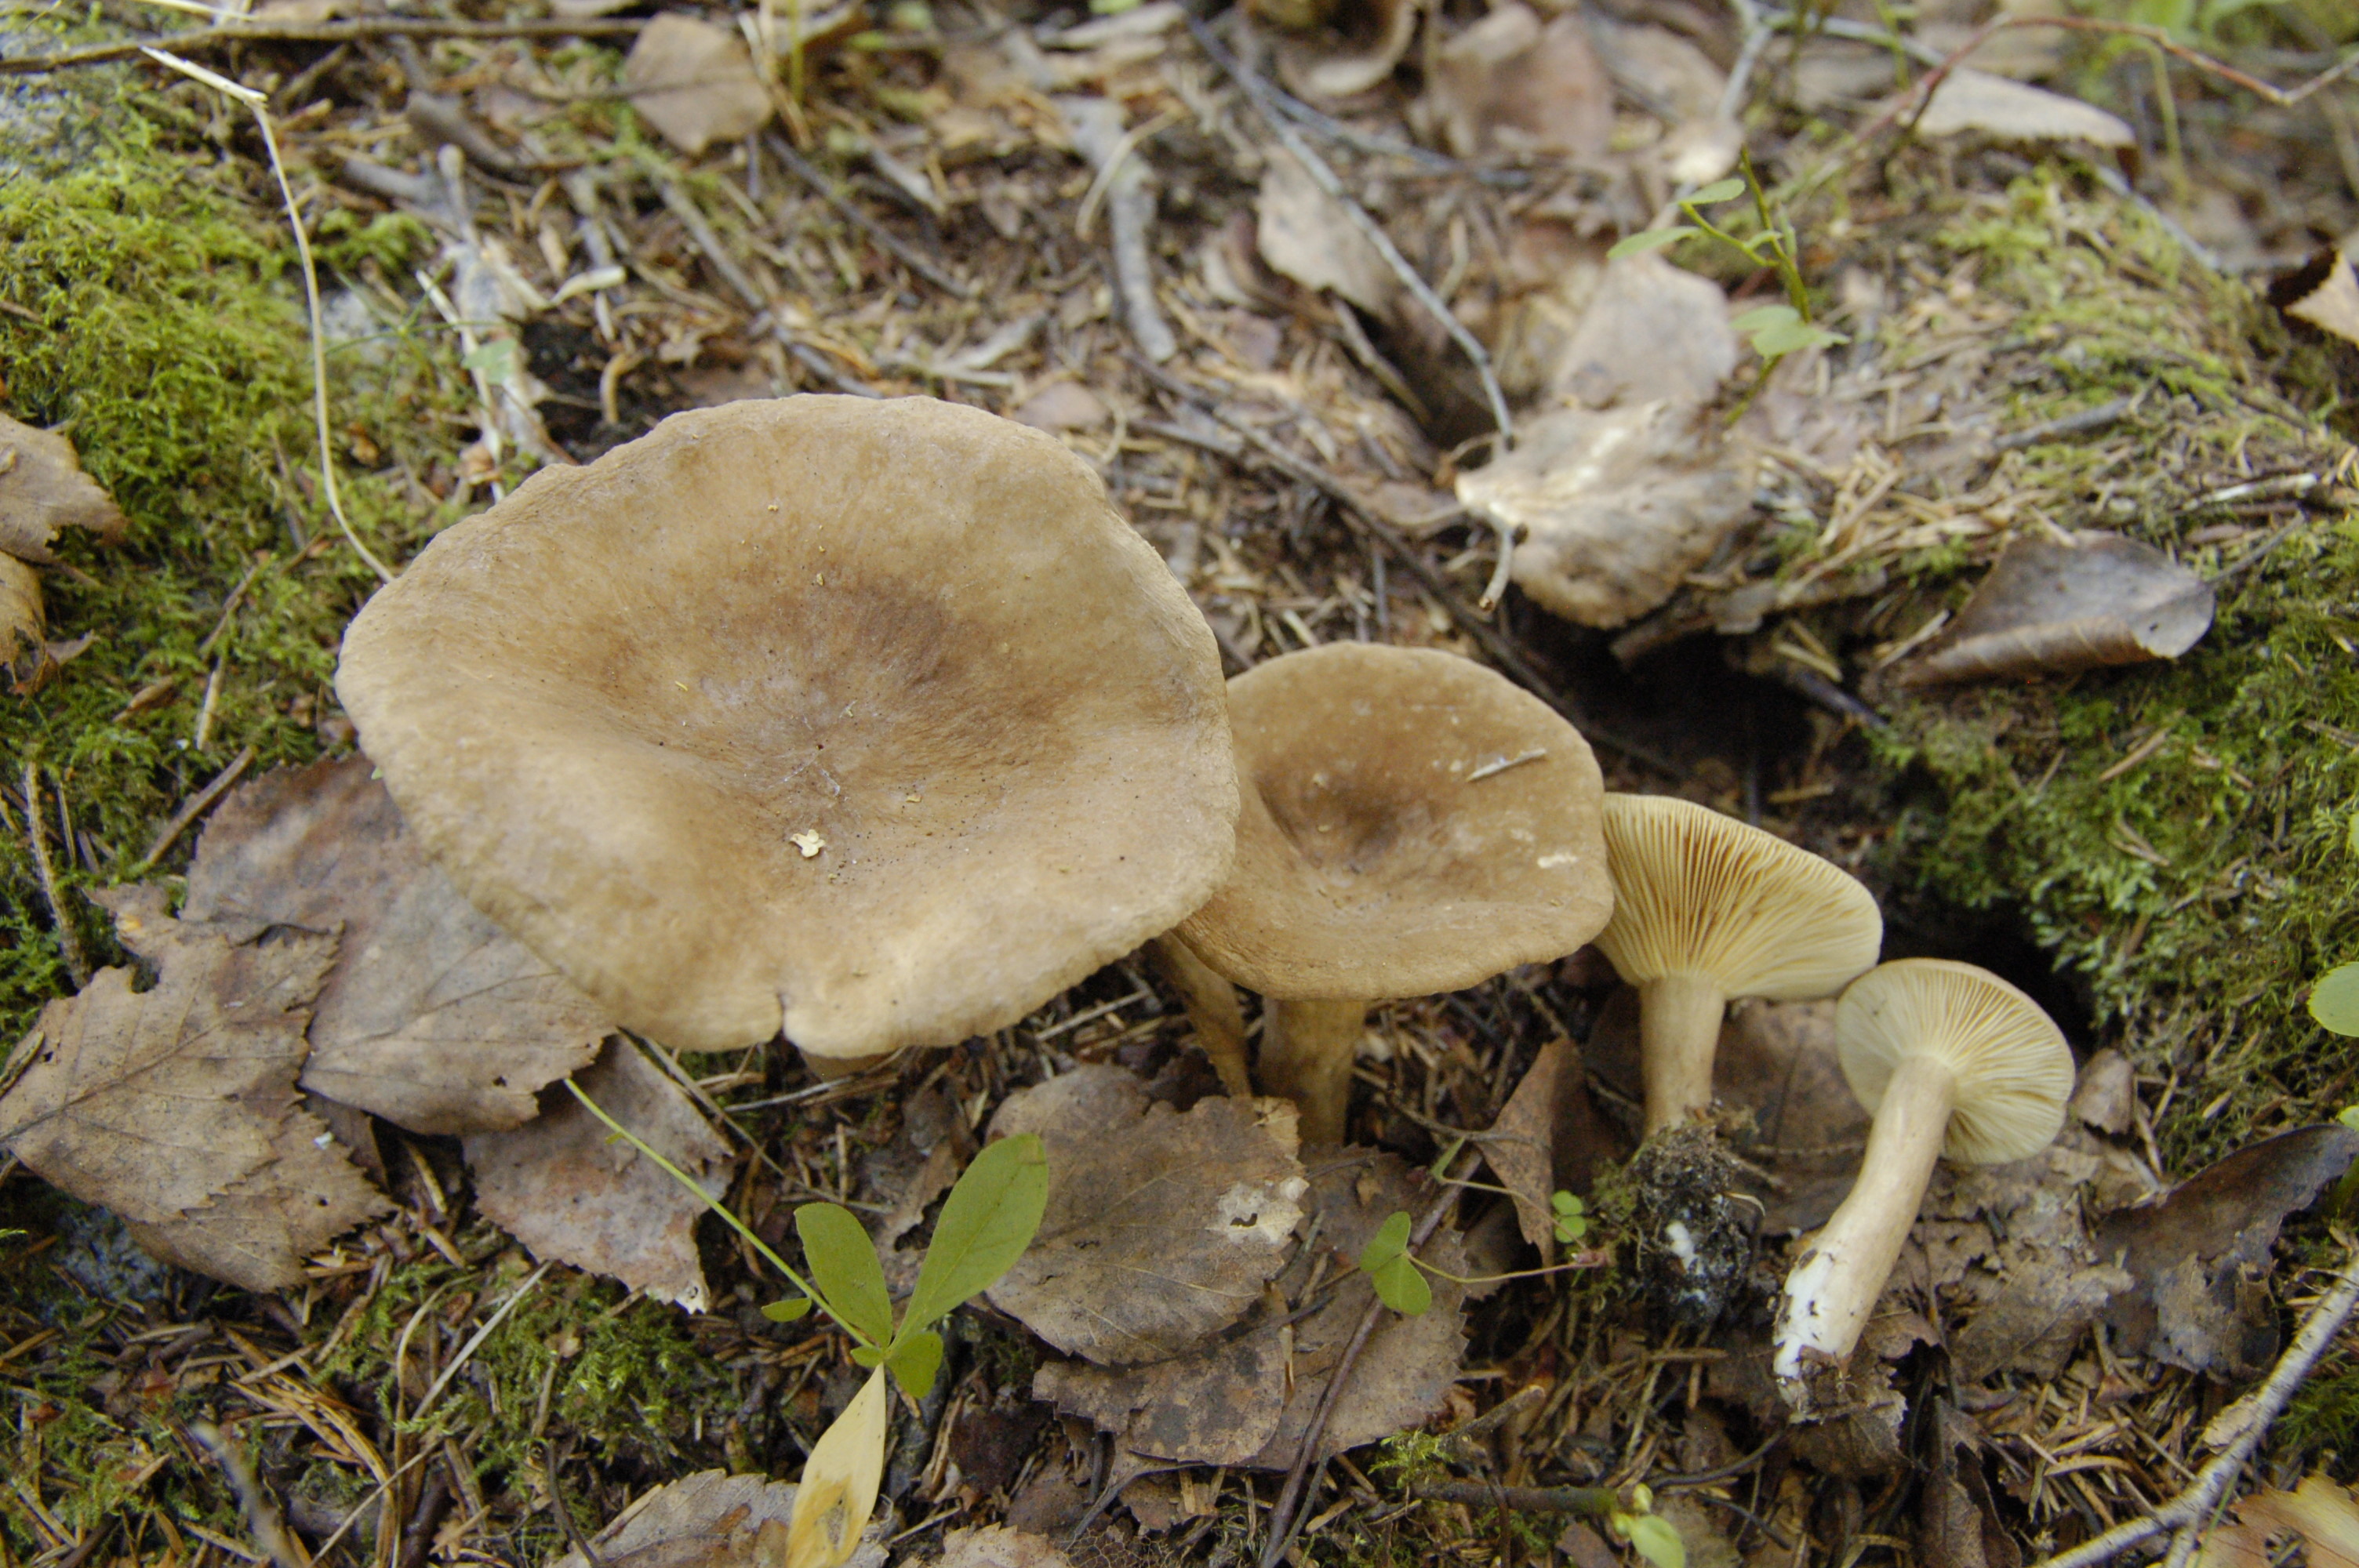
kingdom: Fungi
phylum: Basidiomycota
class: Agaricomycetes
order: Russulales
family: Russulaceae
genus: Lactarius
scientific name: Lactarius fuliginosus
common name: Sooty milkcap
